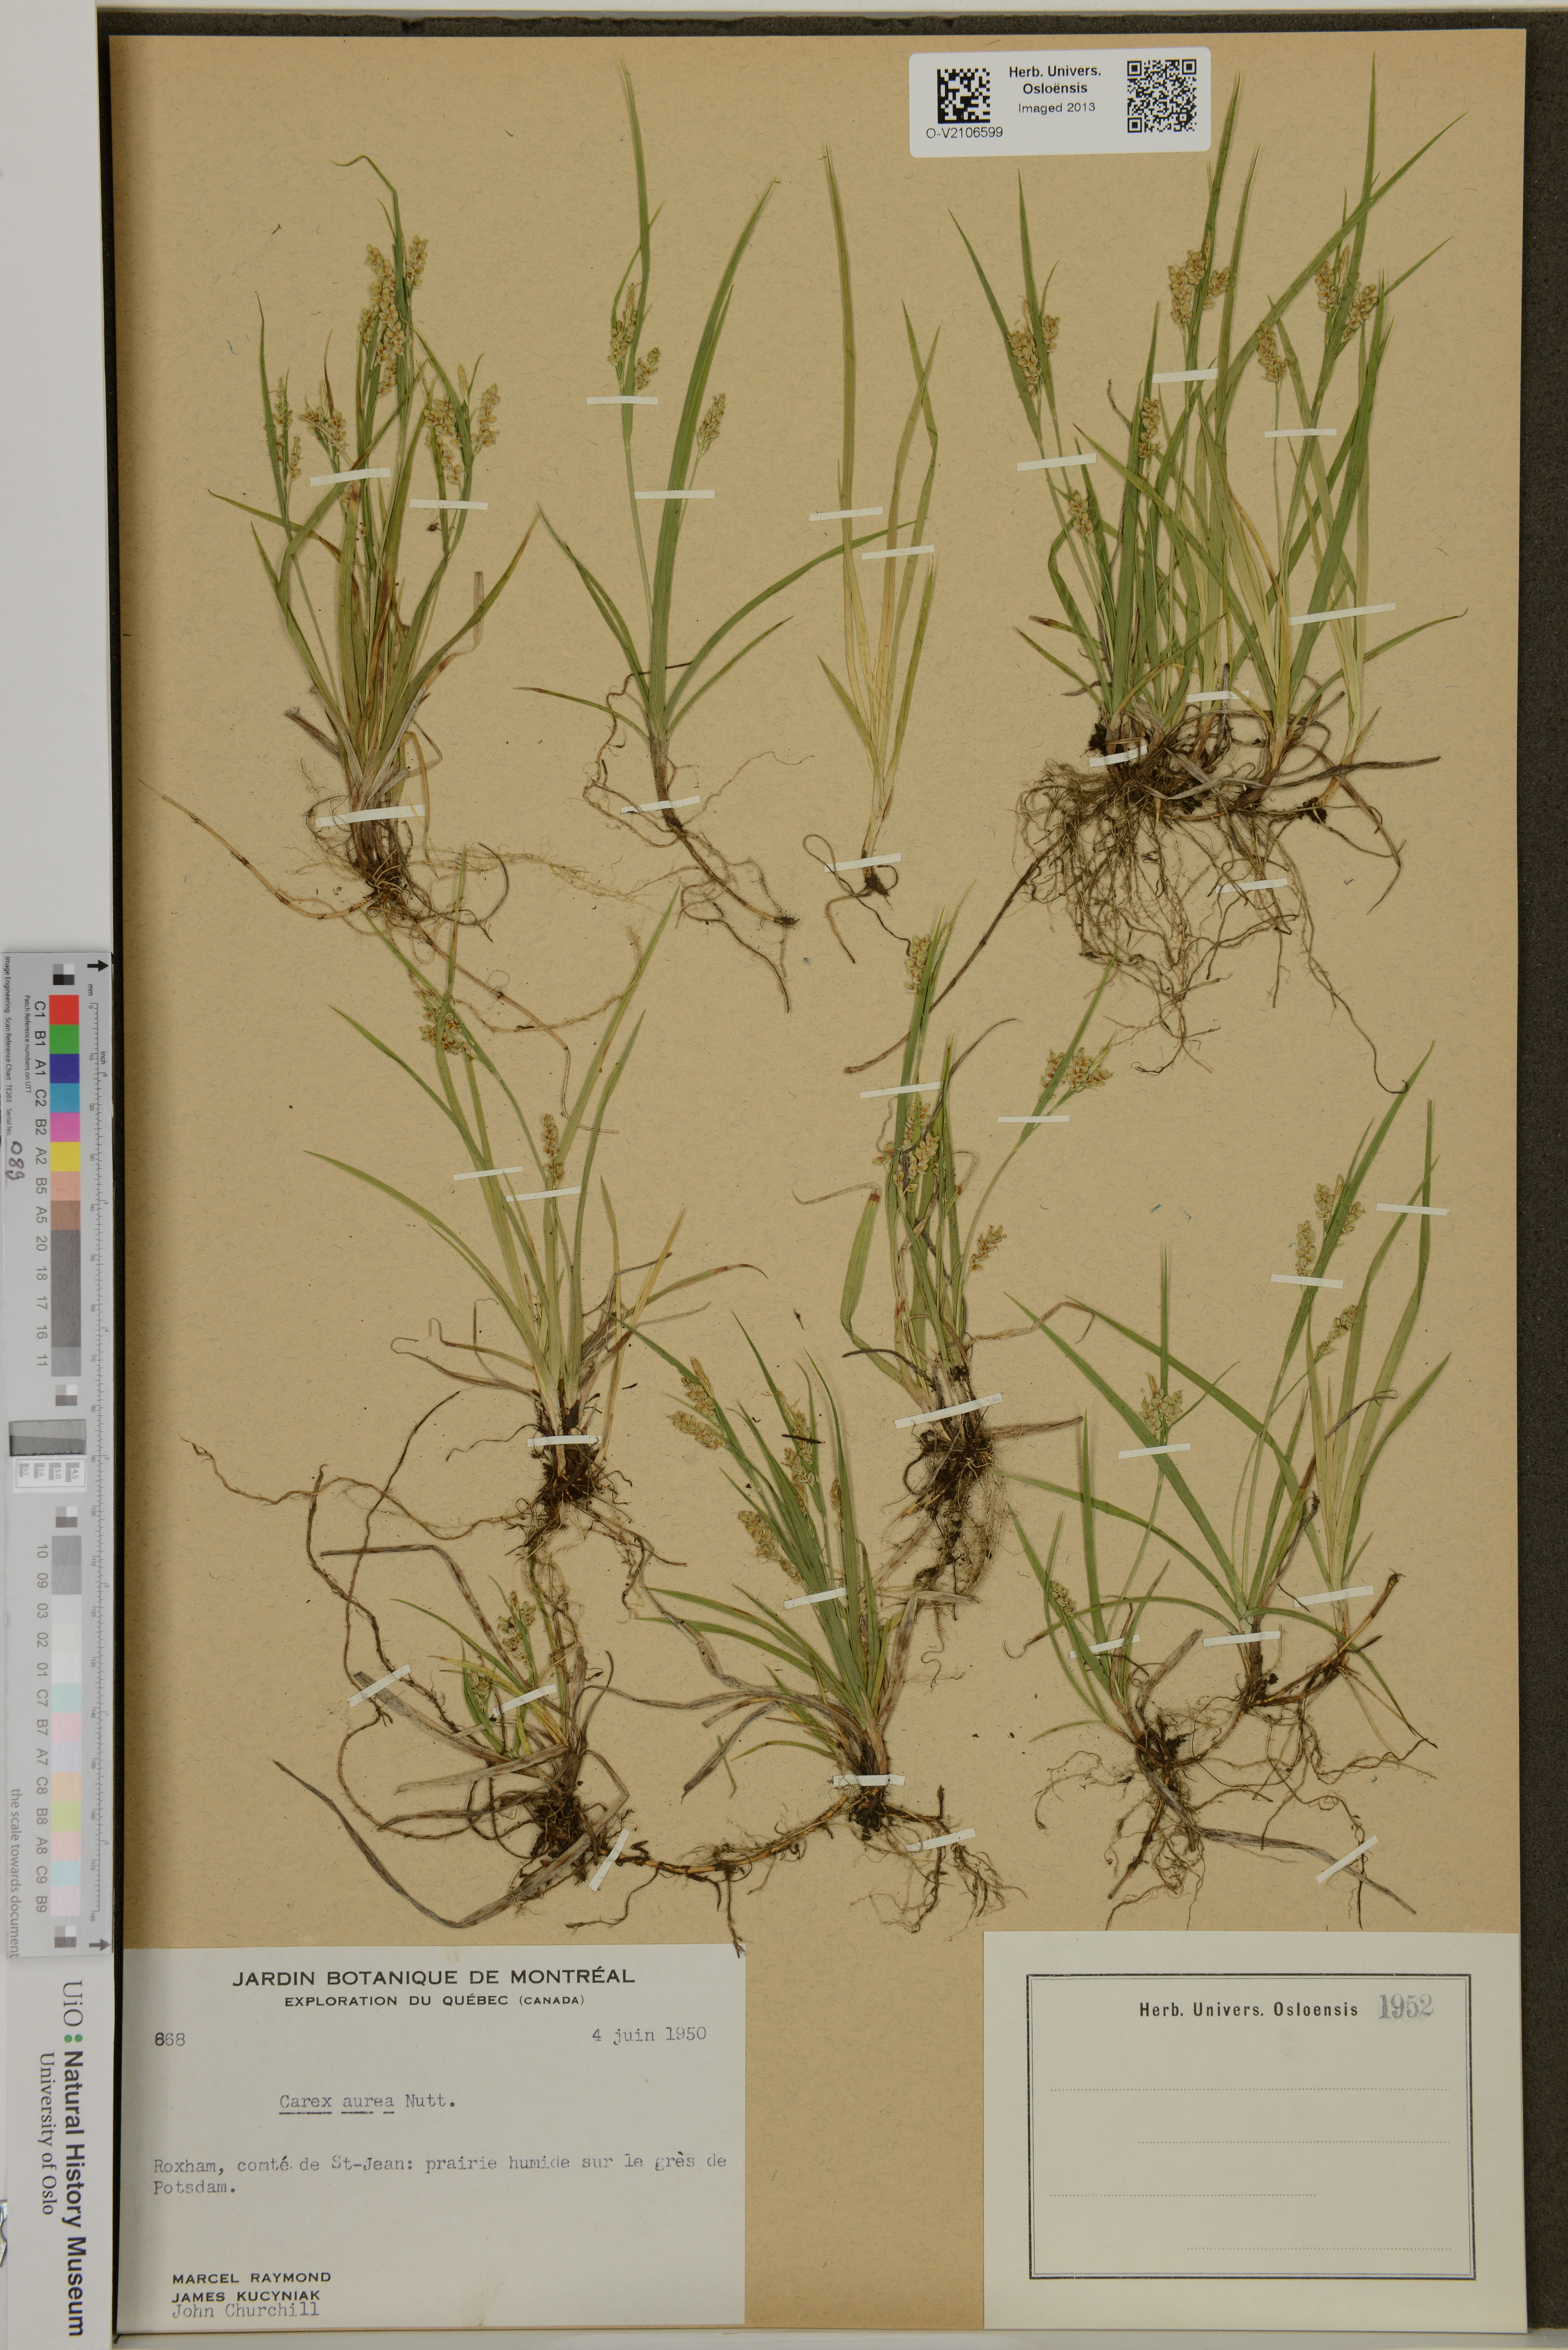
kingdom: Plantae
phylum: Tracheophyta
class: Liliopsida
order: Poales
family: Cyperaceae
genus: Carex
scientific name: Carex aurea
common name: Golden sedge
